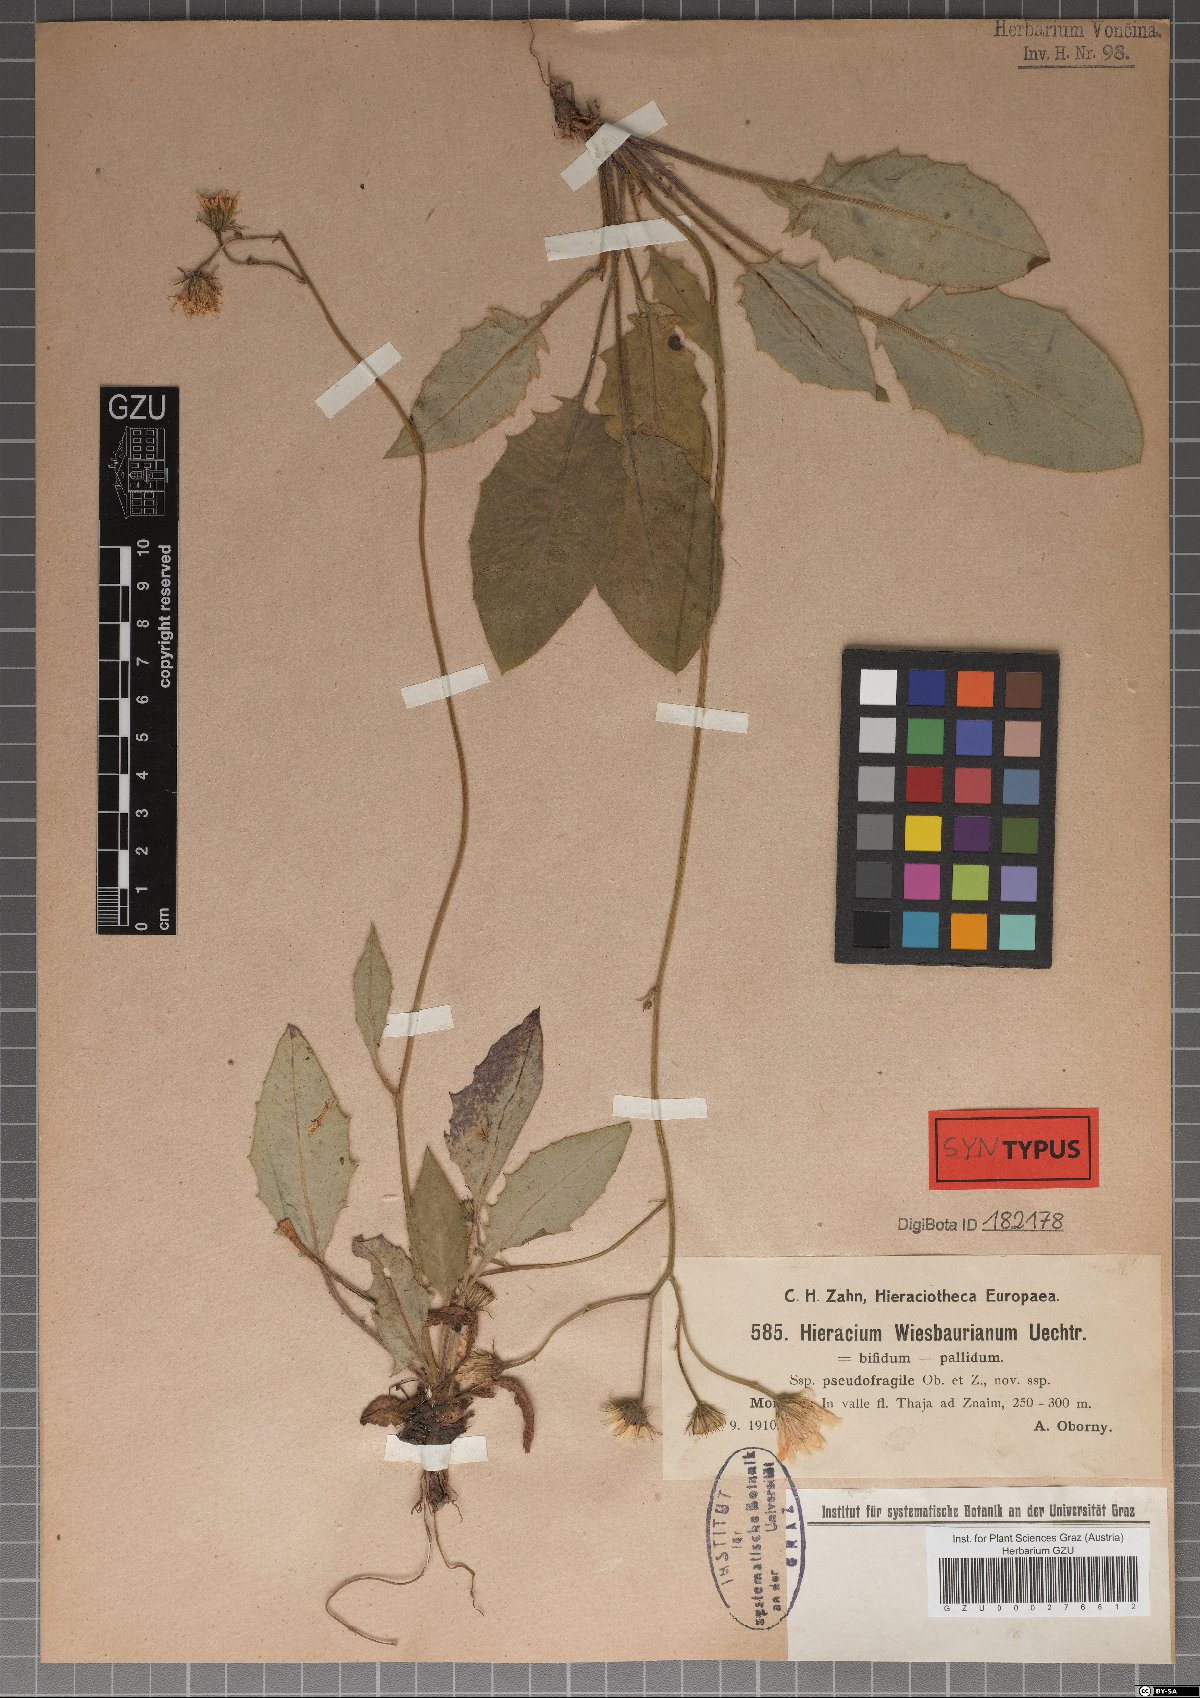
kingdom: Plantae
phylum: Tracheophyta
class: Magnoliopsida
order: Asterales
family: Asteraceae
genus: Hieracium
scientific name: Hieracium hypochoeroides
